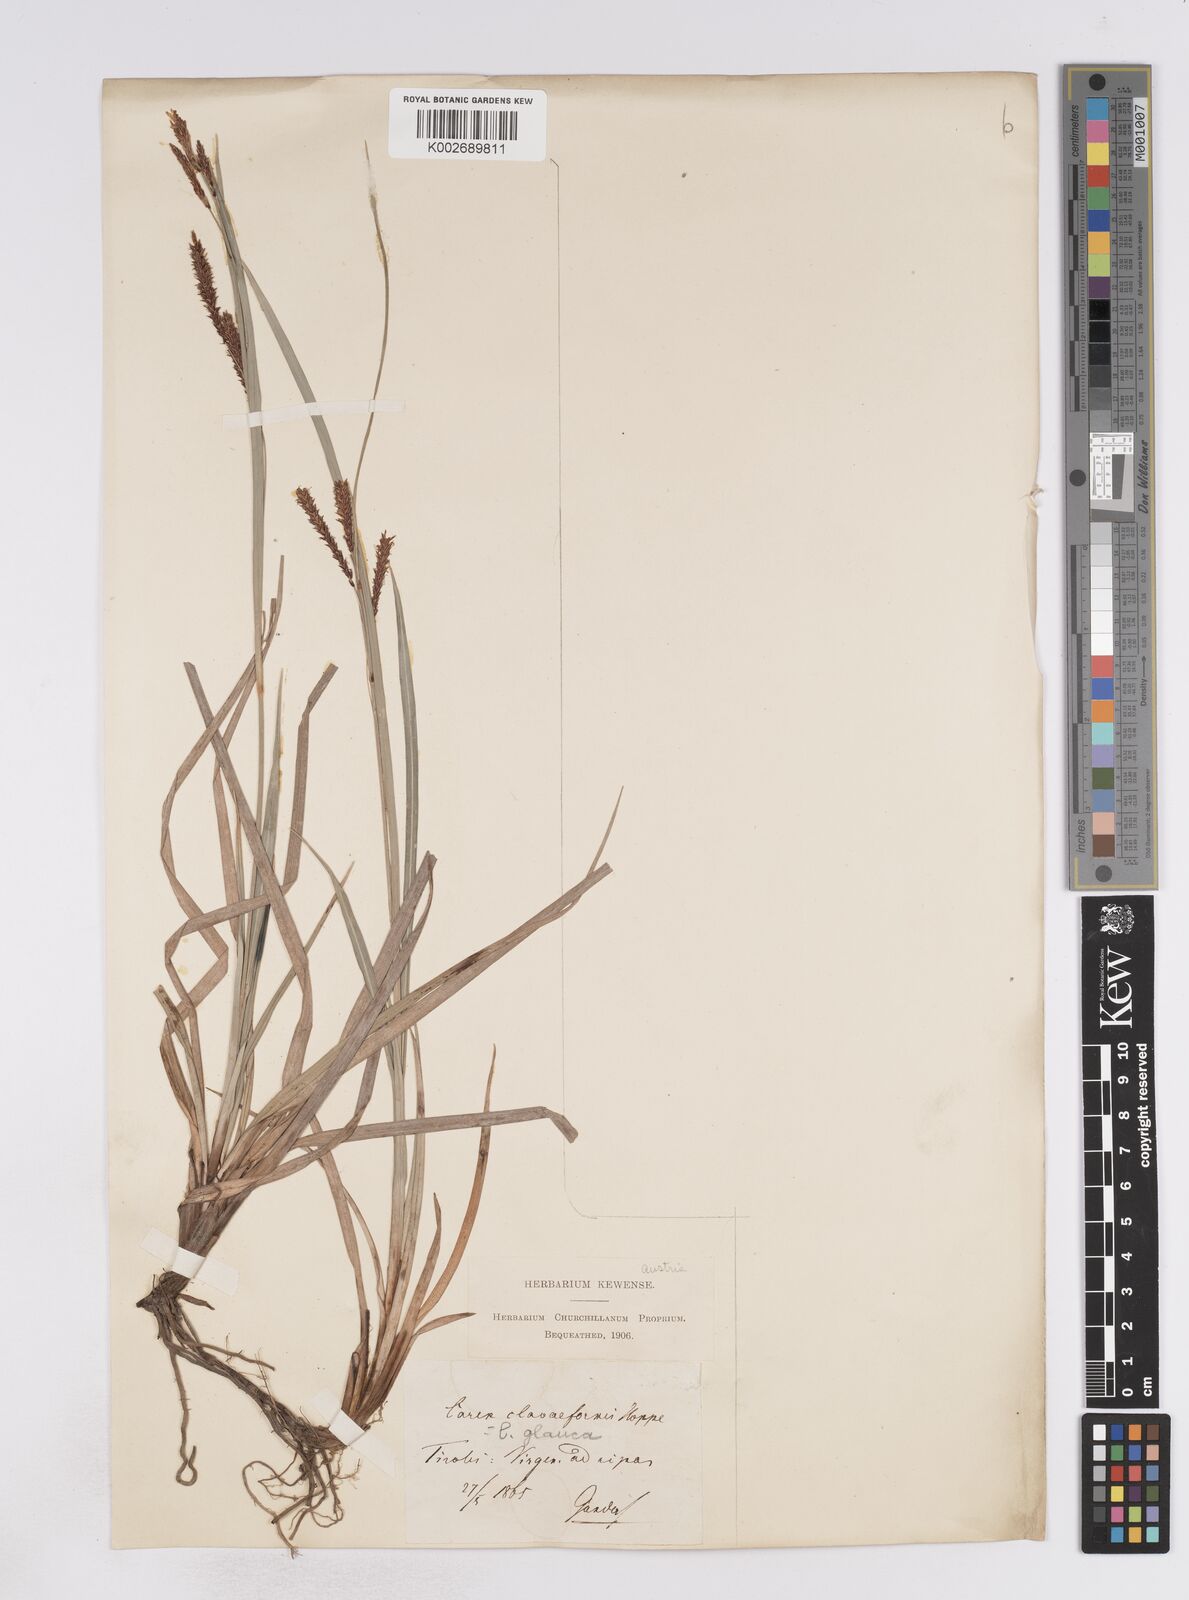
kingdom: Plantae
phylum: Tracheophyta
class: Liliopsida
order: Poales
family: Cyperaceae
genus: Carex
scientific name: Carex flacca
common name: Glaucous sedge
